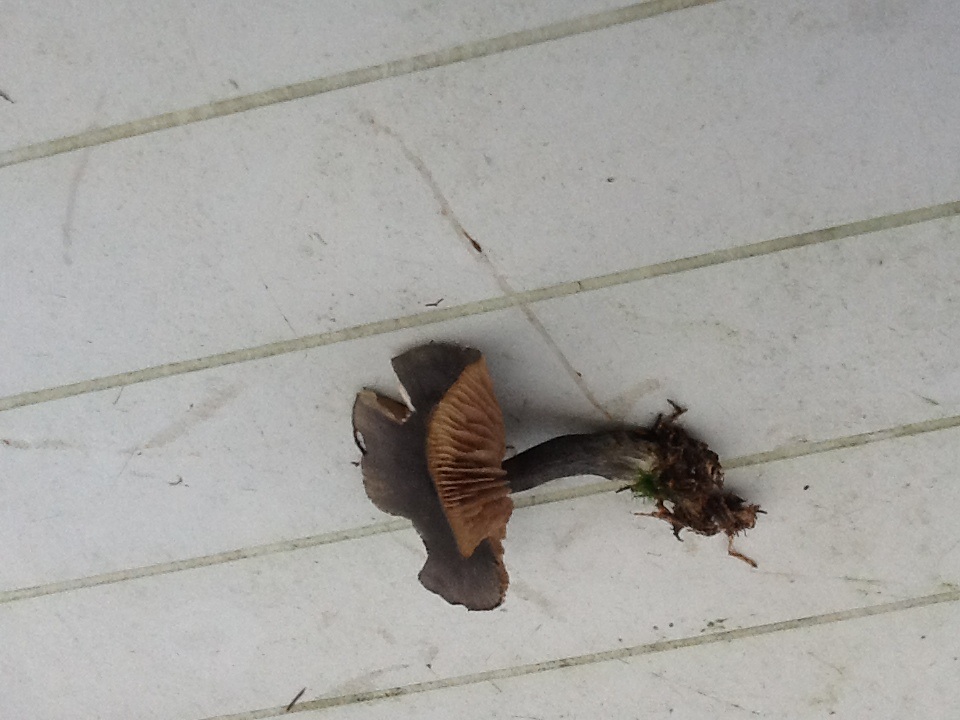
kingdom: Fungi
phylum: Basidiomycota
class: Agaricomycetes
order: Agaricales
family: Entolomataceae
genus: Entocybe
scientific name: Entocybe nitida
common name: stålblå rødblad
